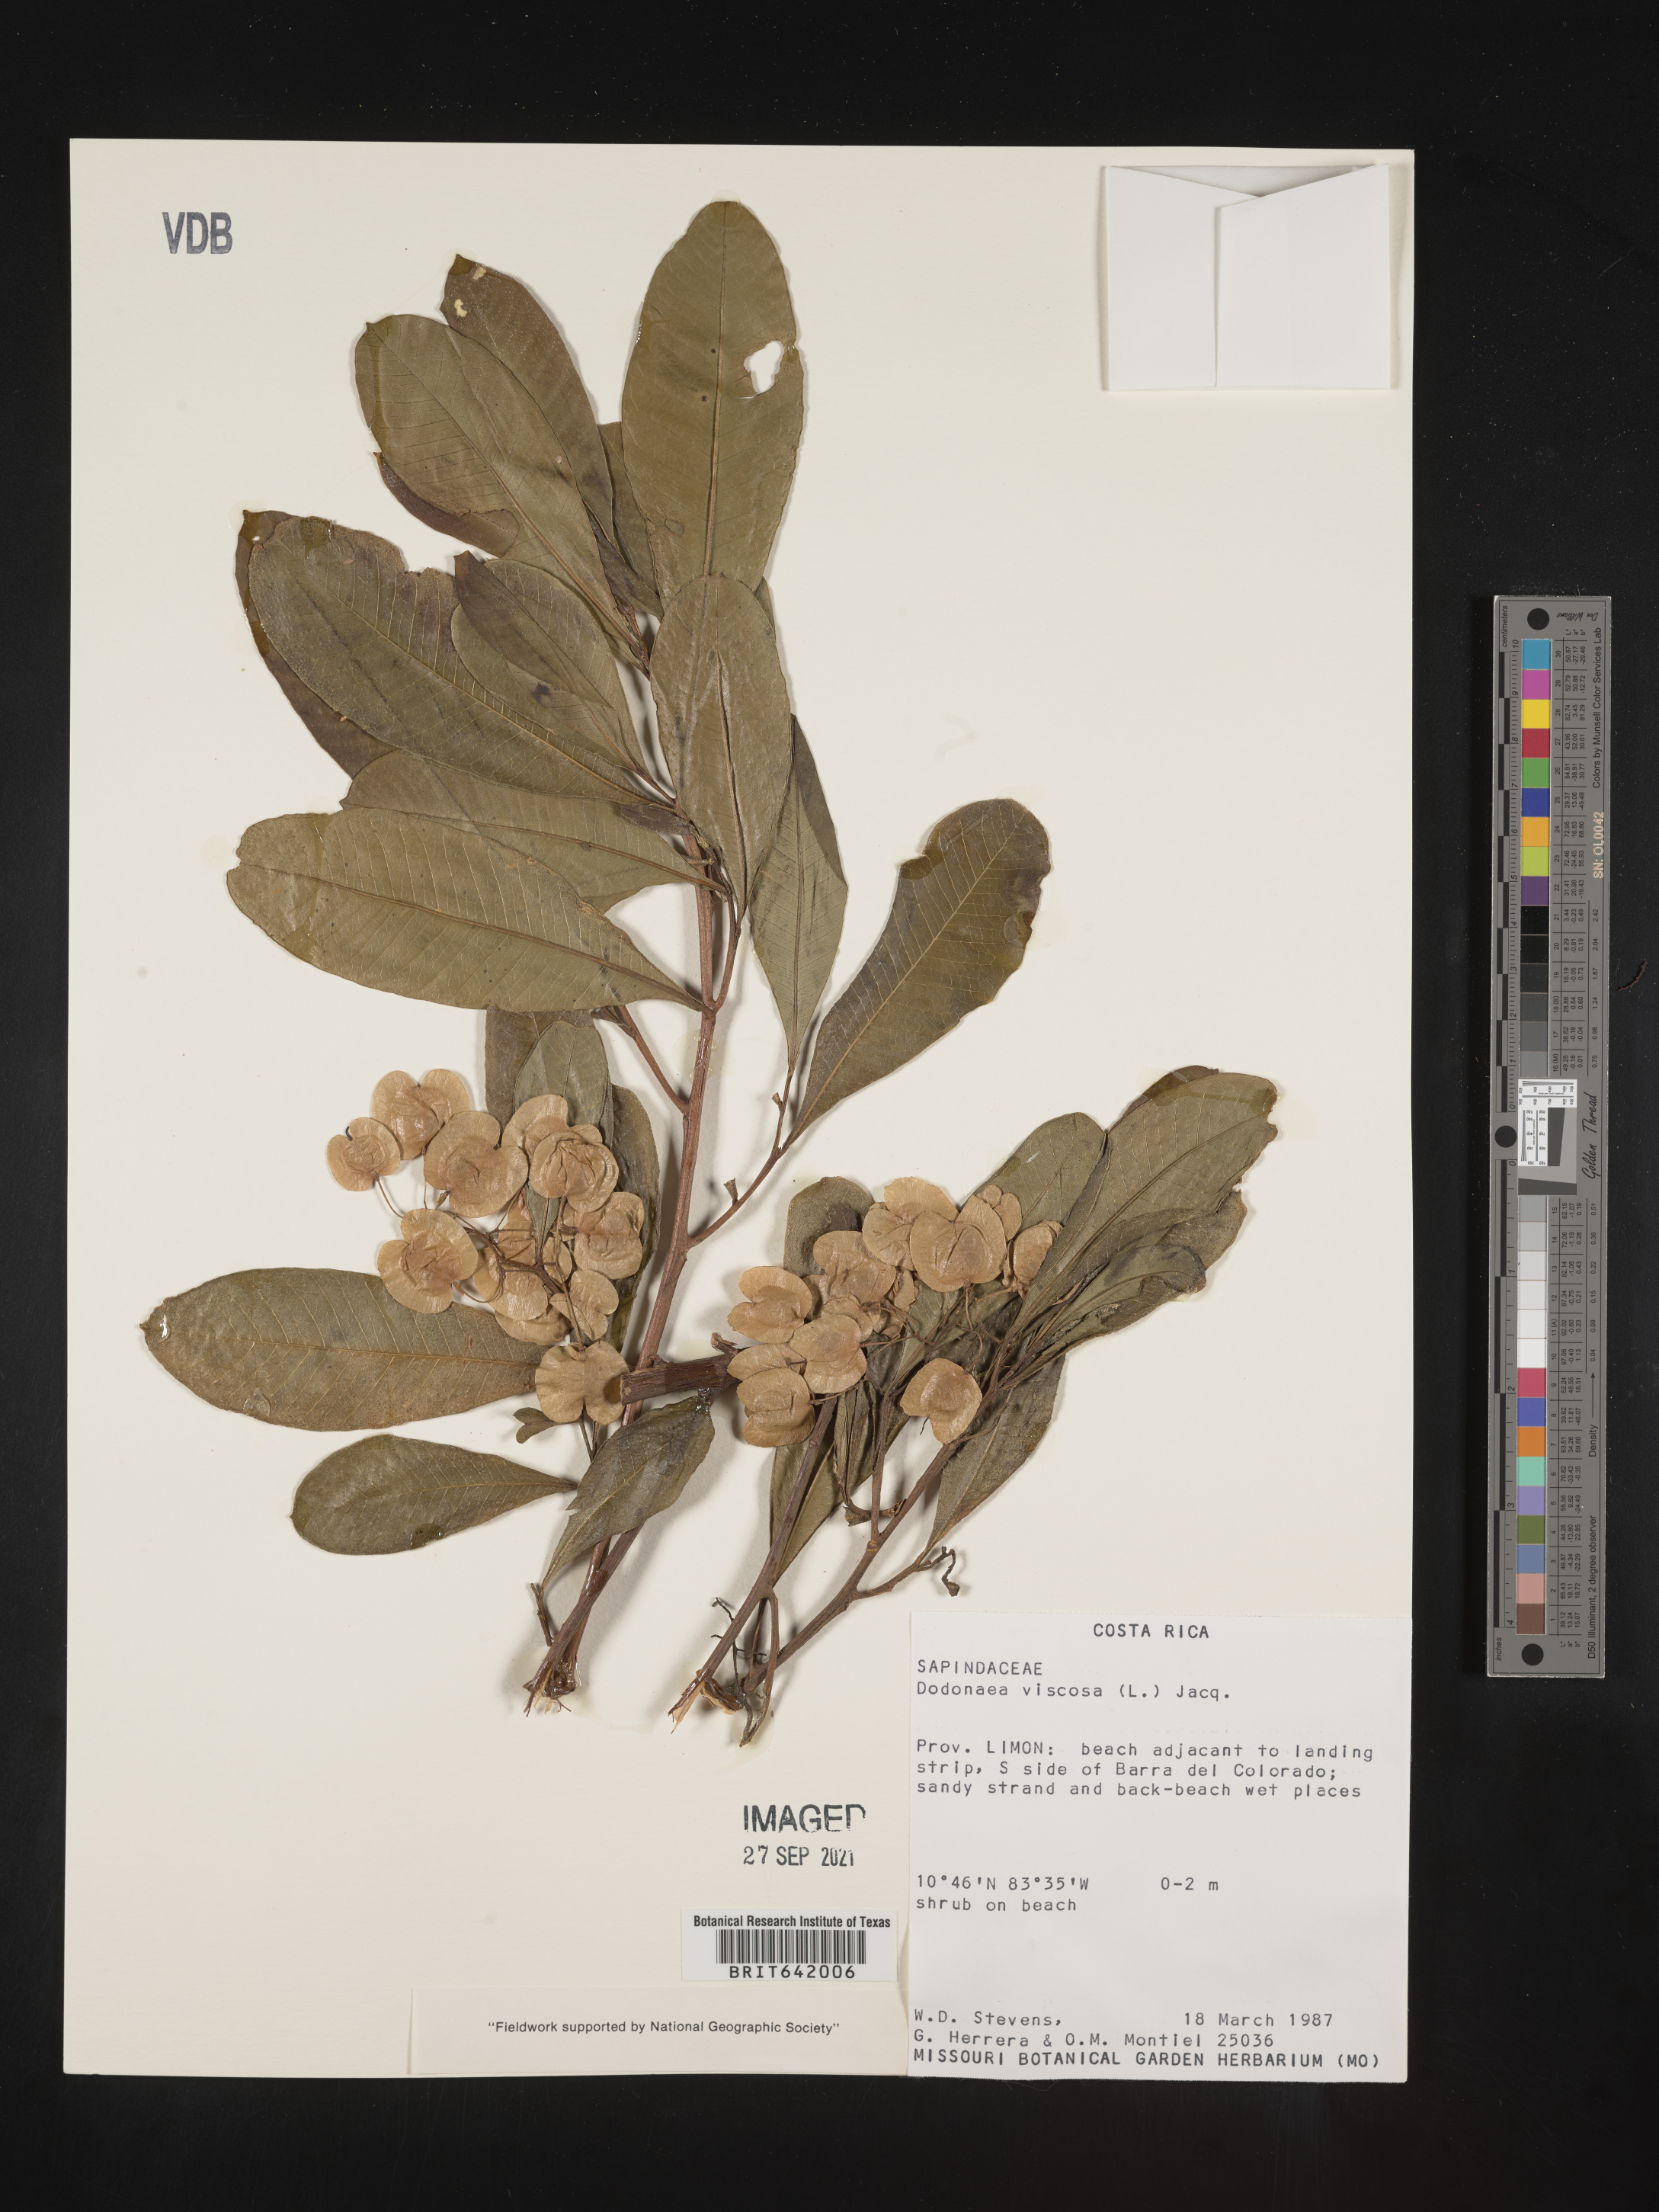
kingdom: Plantae
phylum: Tracheophyta
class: Magnoliopsida
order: Sapindales
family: Sapindaceae
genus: Dodonaea
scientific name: Dodonaea
